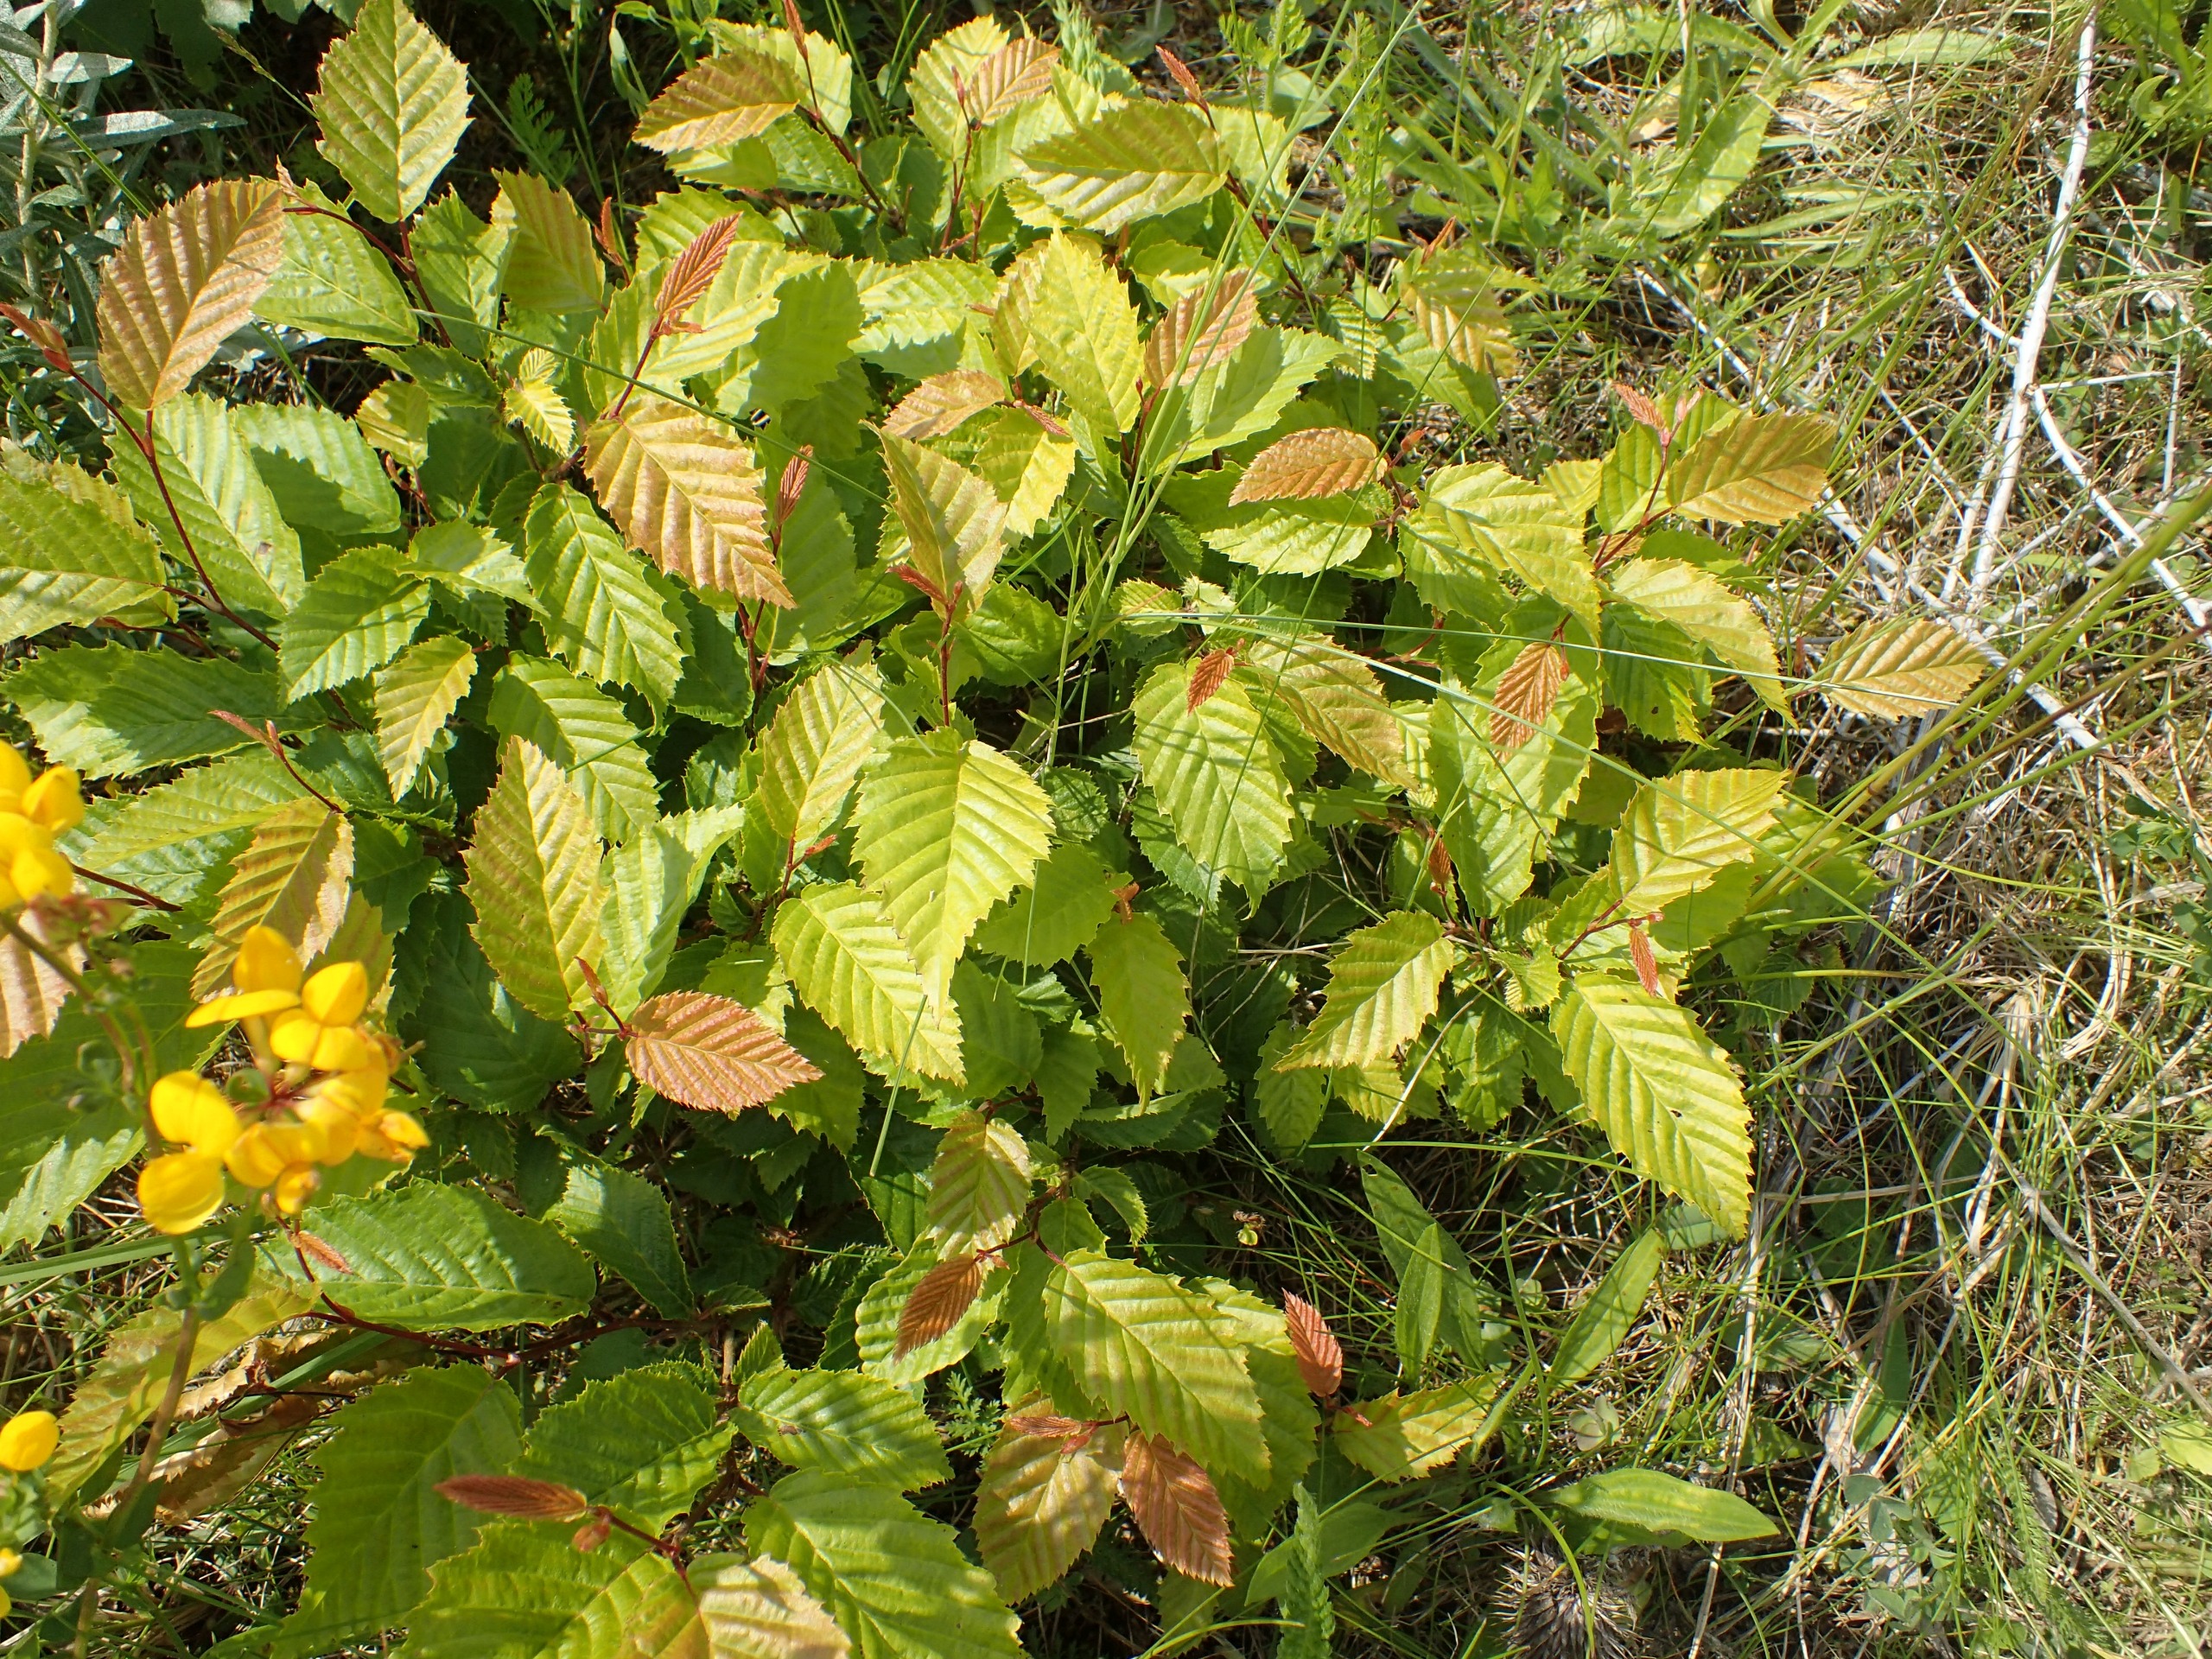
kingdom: Plantae
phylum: Tracheophyta
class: Magnoliopsida
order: Fagales
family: Betulaceae
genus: Carpinus
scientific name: Carpinus betulus
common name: Avnbøg
